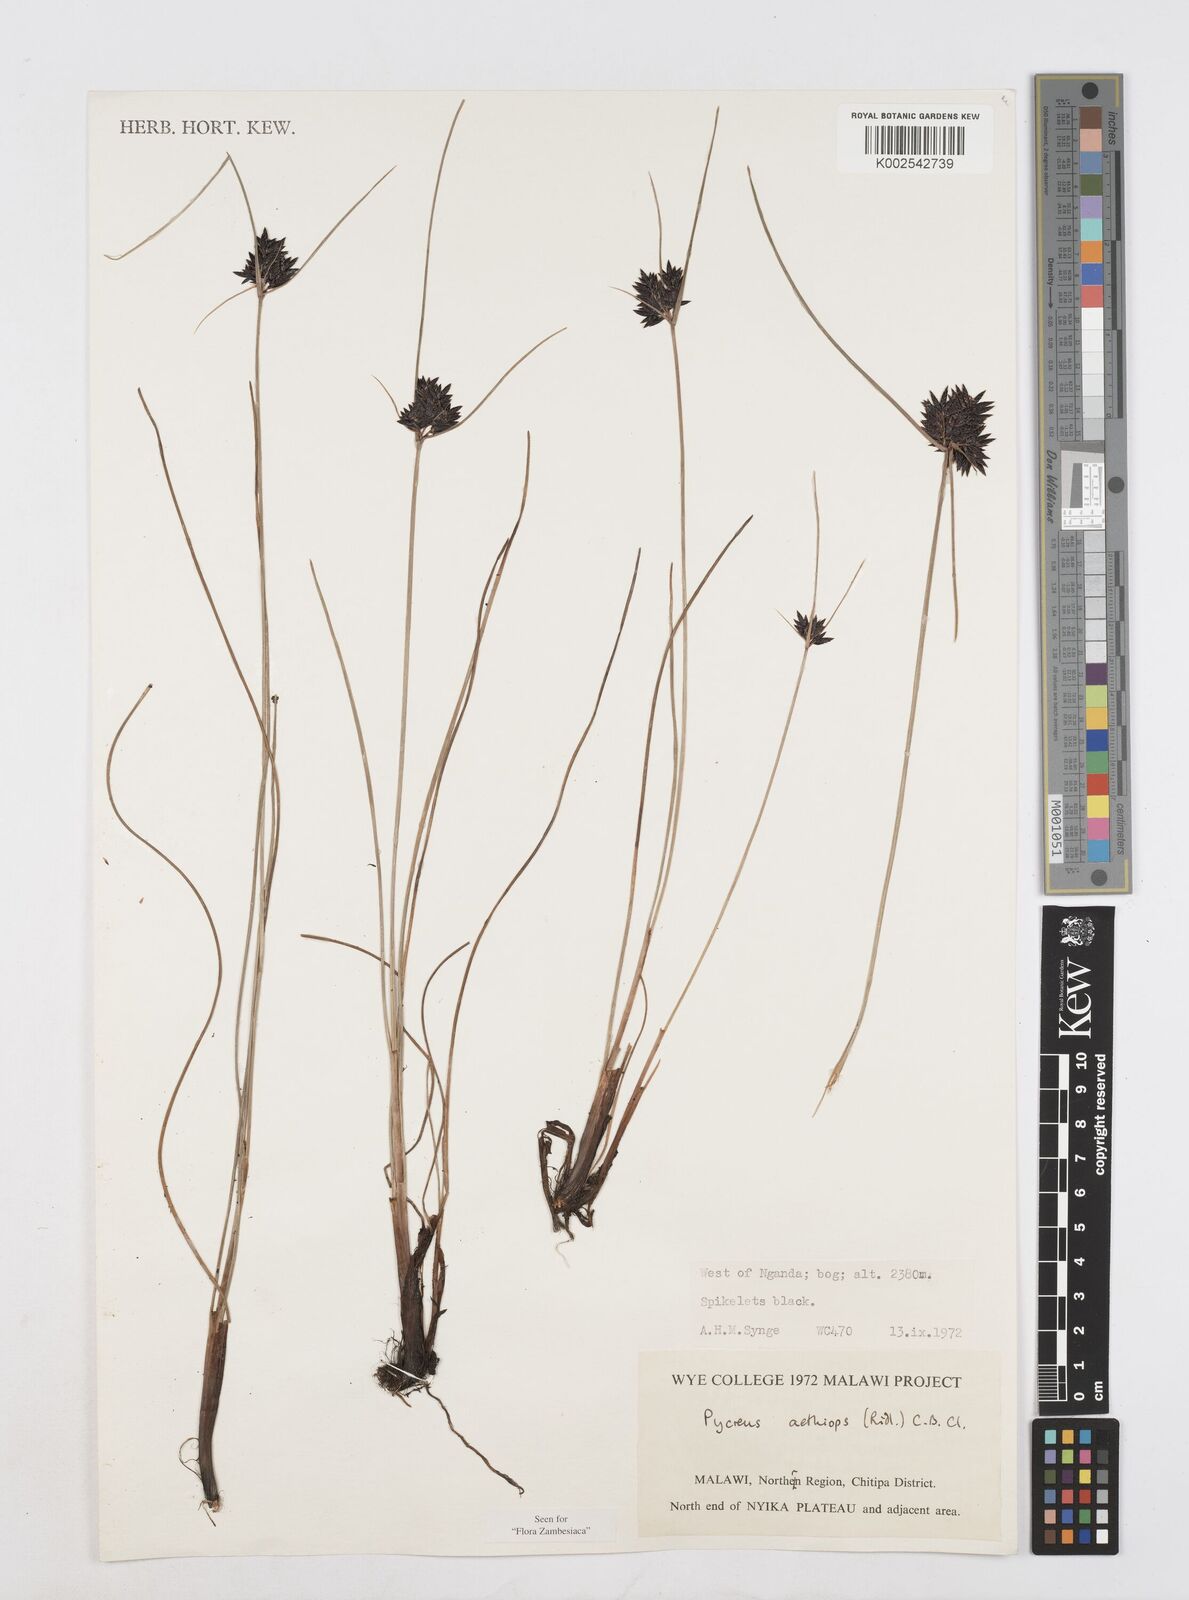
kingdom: Plantae
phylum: Tracheophyta
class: Liliopsida
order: Poales
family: Cyperaceae
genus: Cyperus
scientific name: Cyperus aethiops
